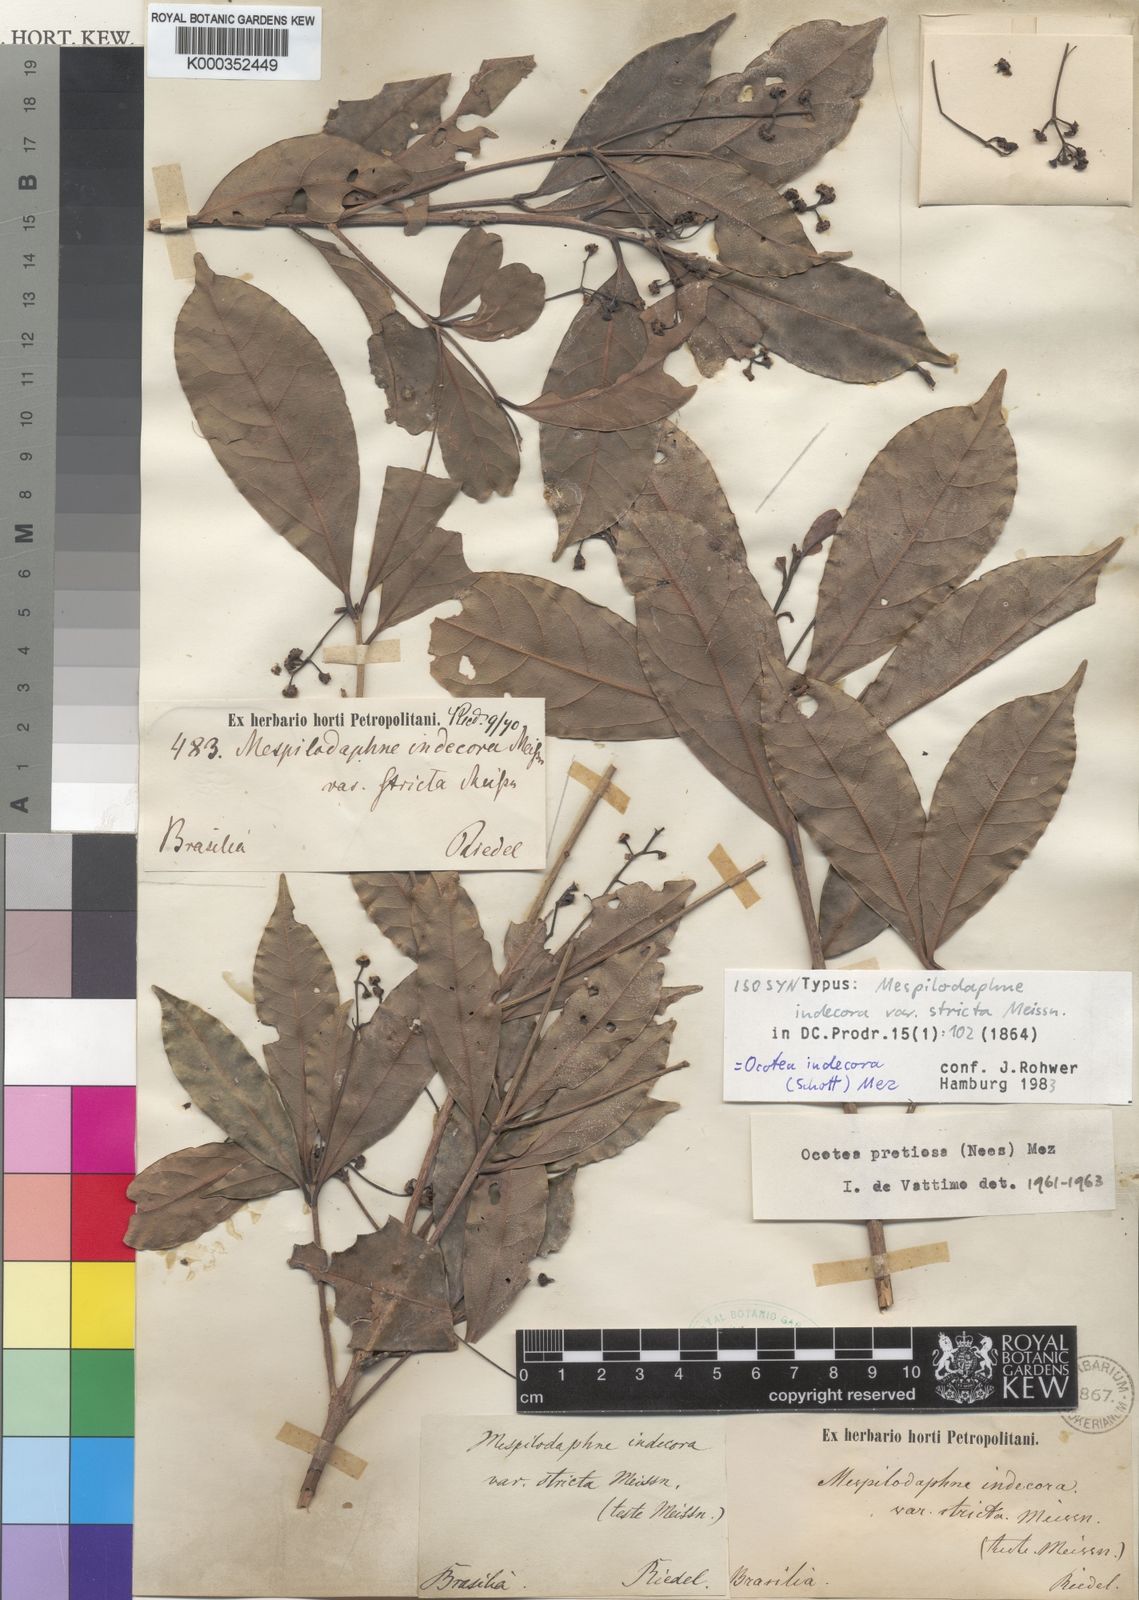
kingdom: Plantae
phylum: Tracheophyta
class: Magnoliopsida
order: Laurales
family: Lauraceae
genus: Ocotea
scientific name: Ocotea
